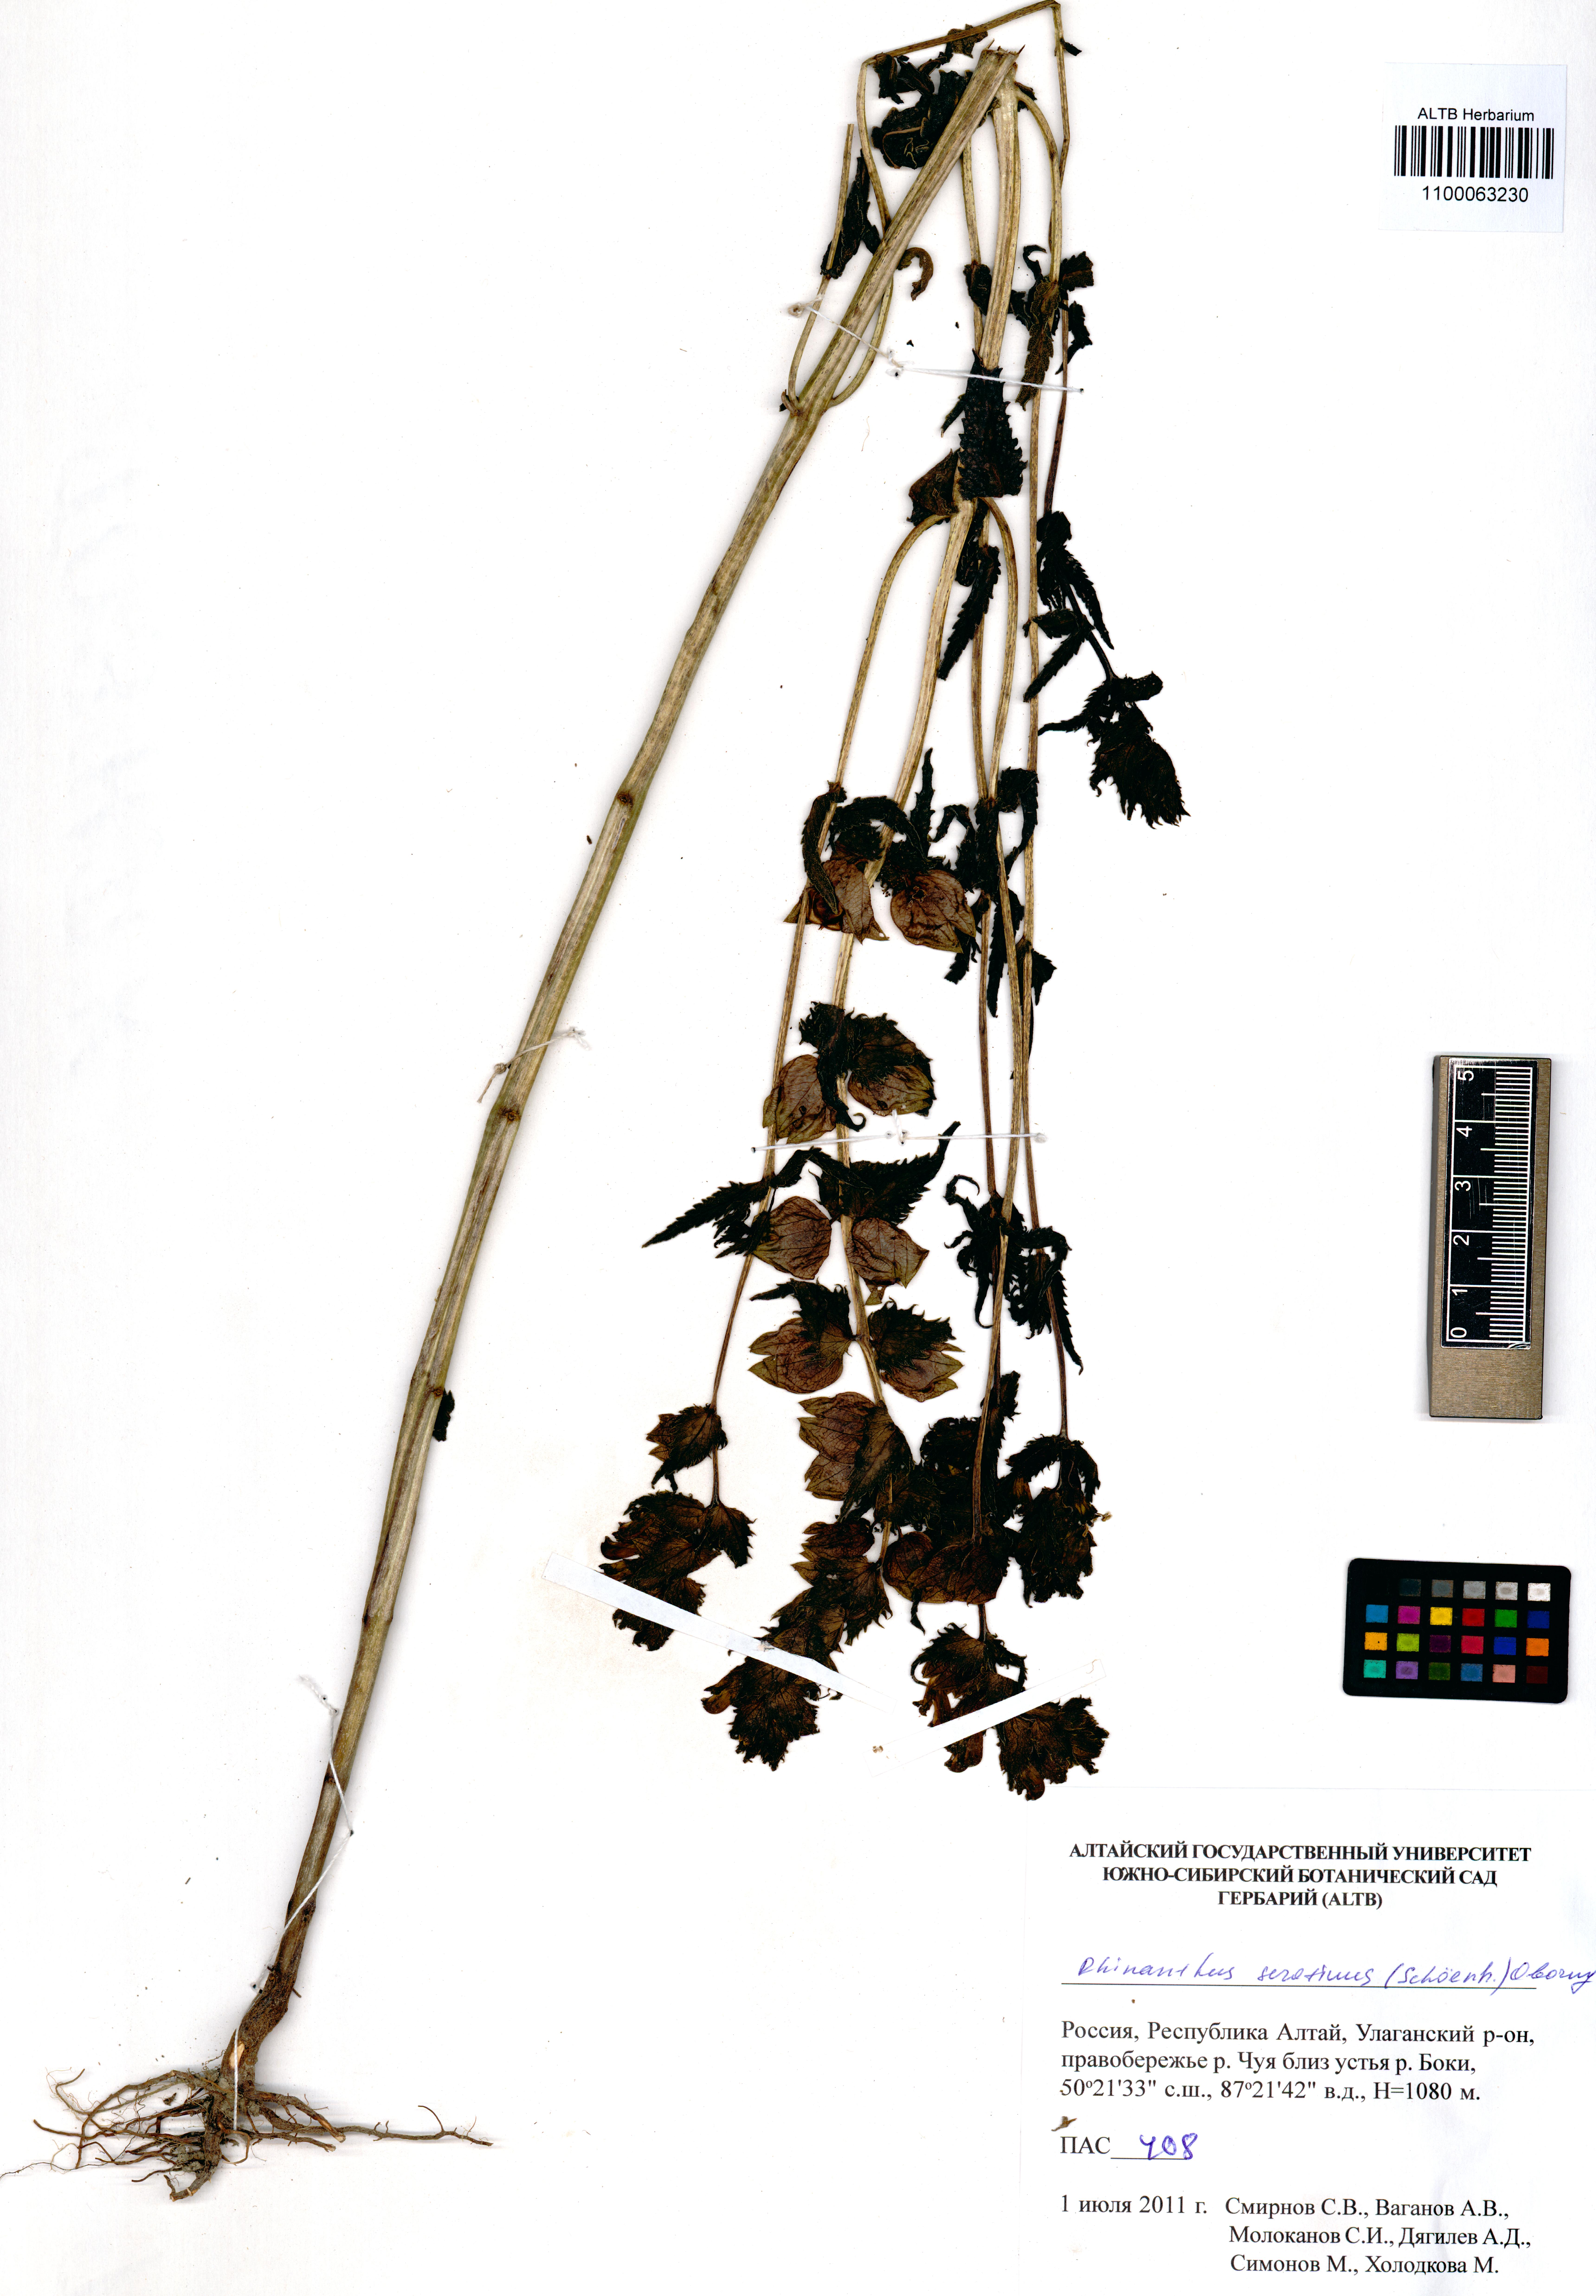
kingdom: Plantae
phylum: Tracheophyta
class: Magnoliopsida
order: Lamiales
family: Orobanchaceae
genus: Rhinanthus
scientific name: Rhinanthus serotinus
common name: Late-flowering yellow rattle
